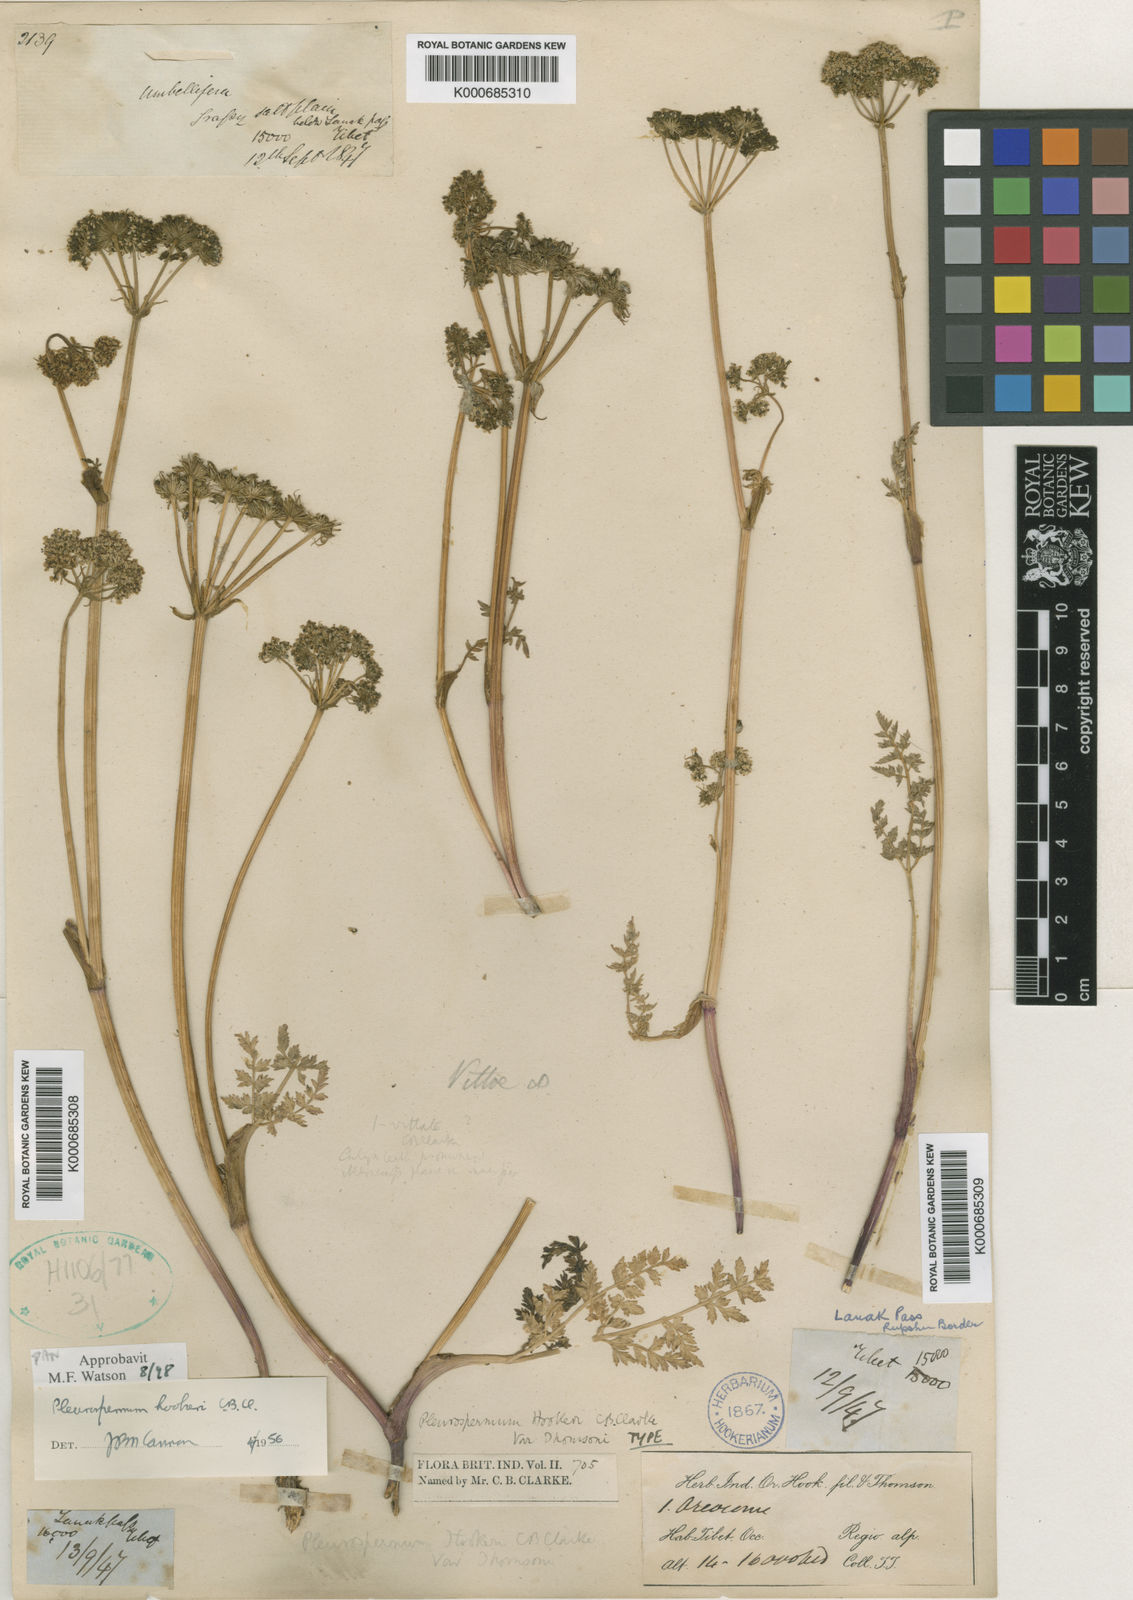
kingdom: Plantae
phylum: Tracheophyta
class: Magnoliopsida
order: Apiales
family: Apiaceae
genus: Pleurospermum
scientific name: Pleurospermum hookeri
